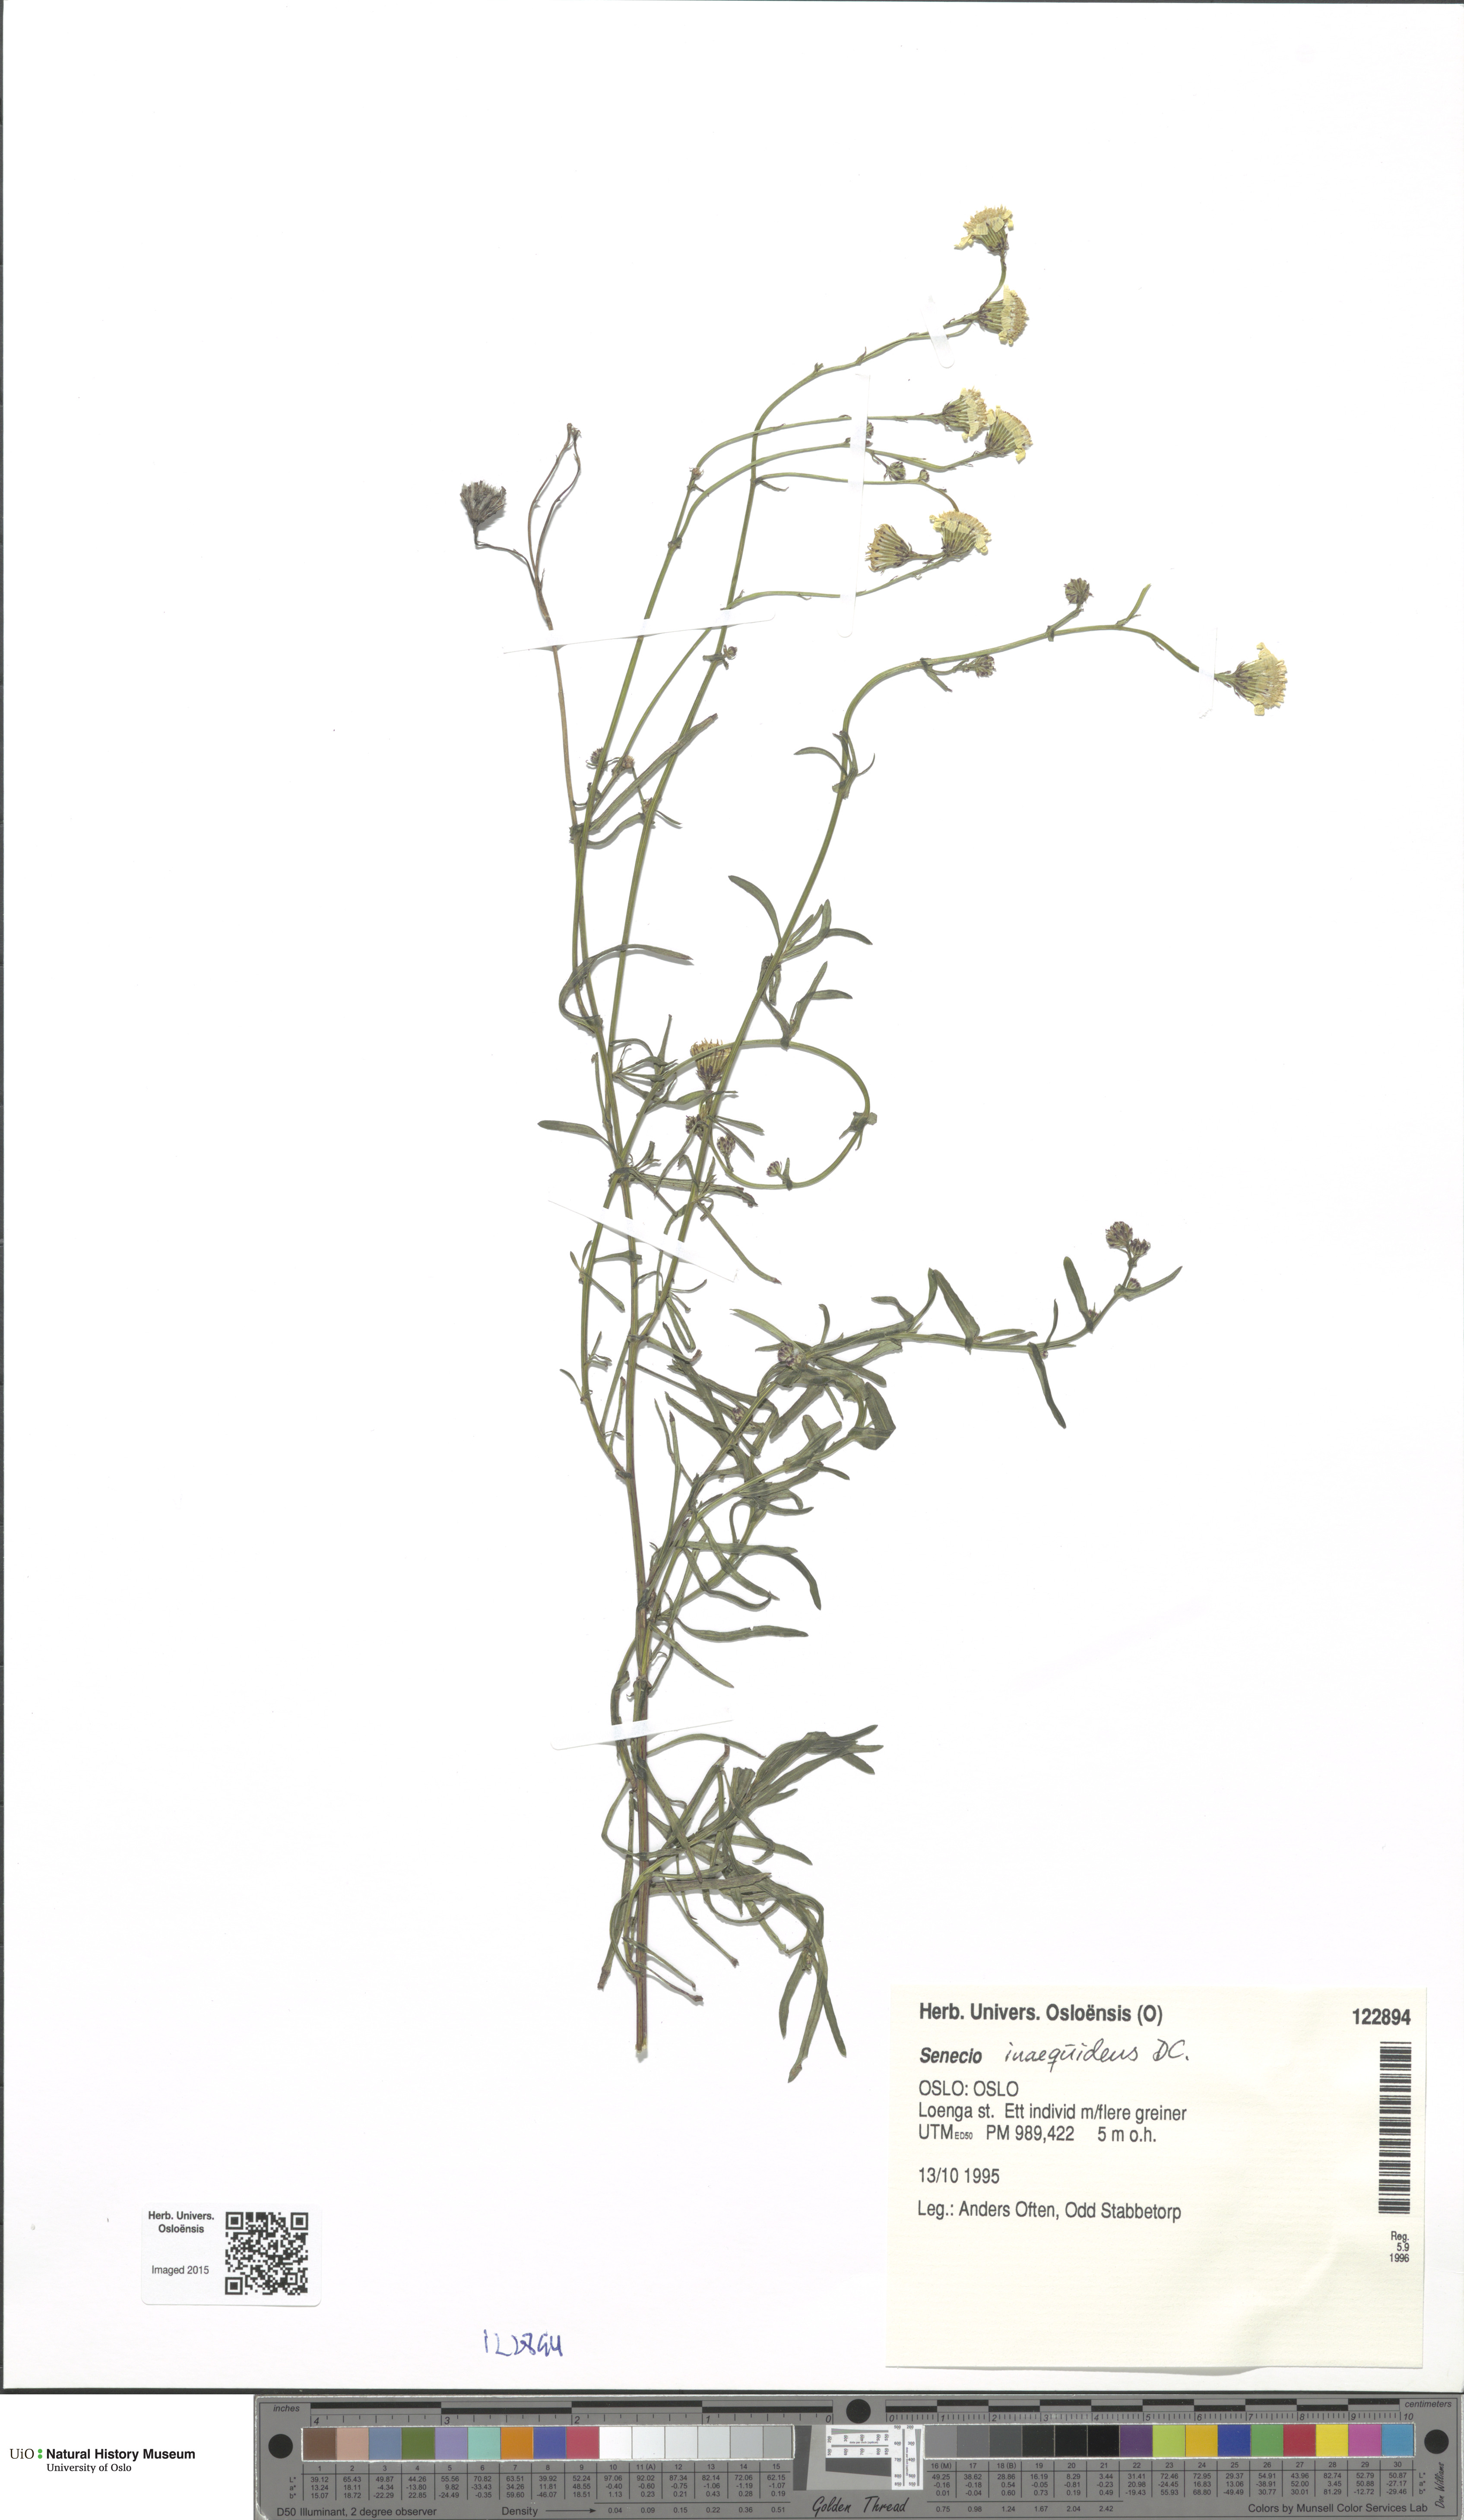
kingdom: Plantae
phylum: Tracheophyta
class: Magnoliopsida
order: Asterales
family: Asteraceae
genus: Senecio
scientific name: Senecio inaequidens
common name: Narrow-leaved ragwort
